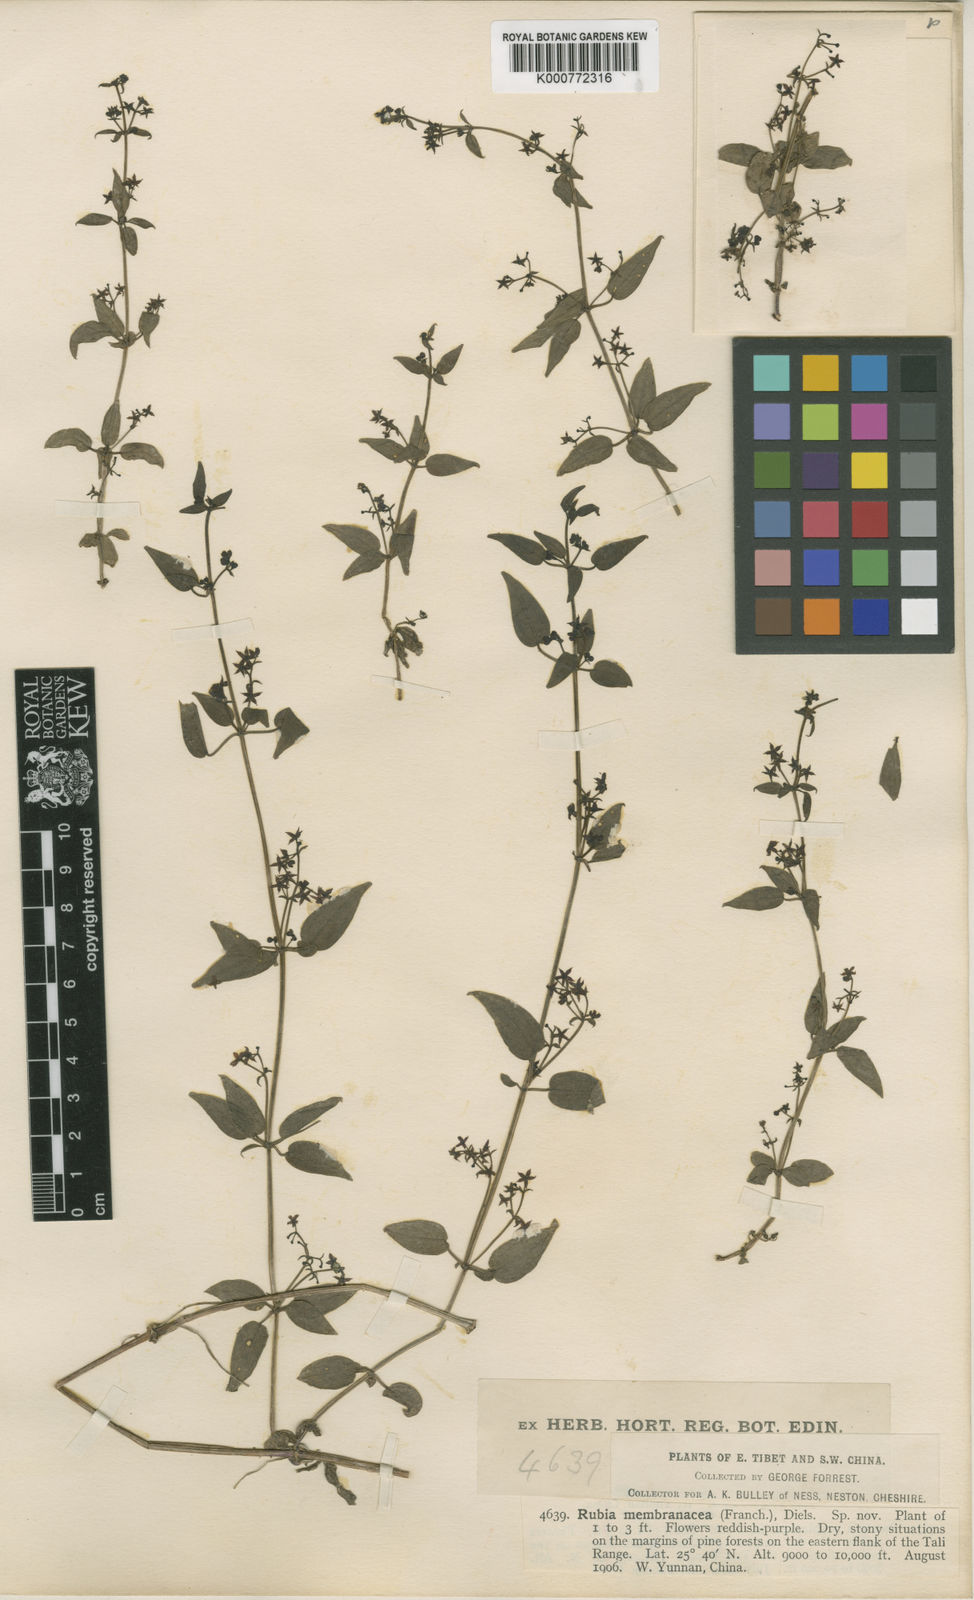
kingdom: Plantae
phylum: Tracheophyta
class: Magnoliopsida
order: Gentianales
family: Rubiaceae
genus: Rubia
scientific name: Rubia cordifolia
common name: Indian madder
